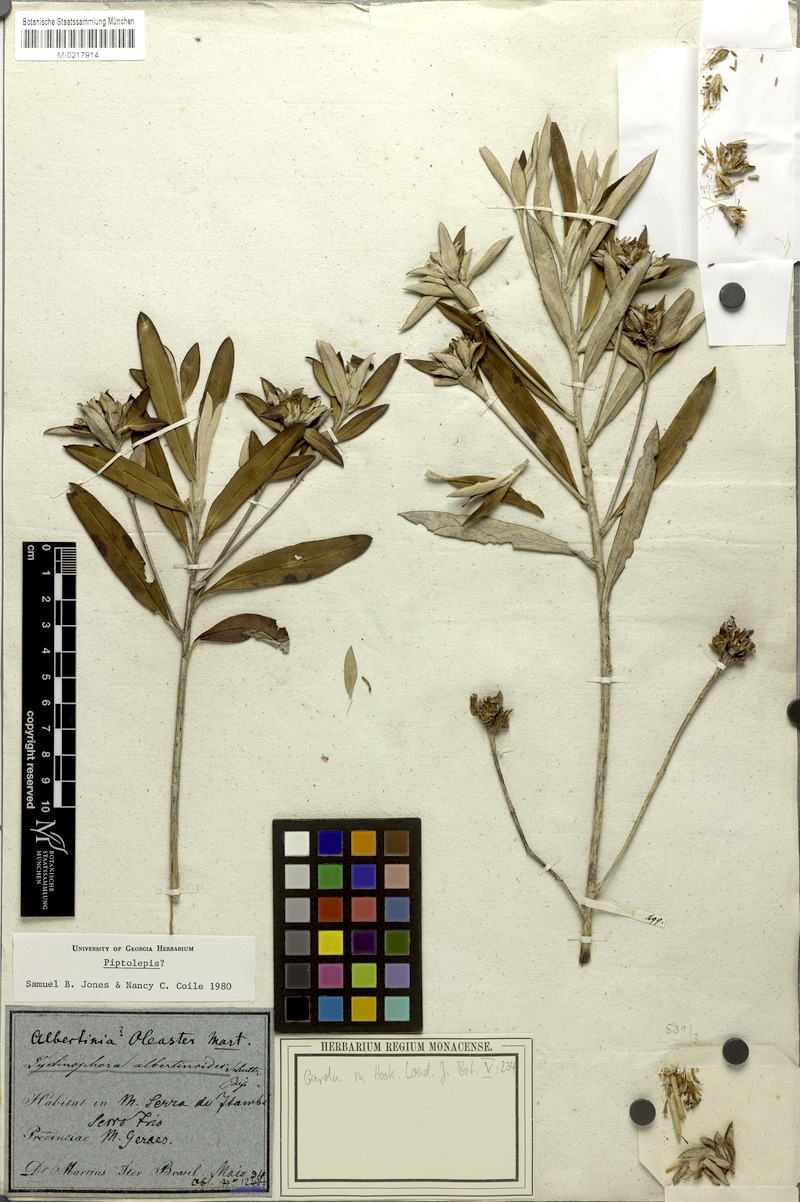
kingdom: Plantae
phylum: Tracheophyta
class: Magnoliopsida
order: Asterales
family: Asteraceae
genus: Lychnophora
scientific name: Lychnophora albertinioides
